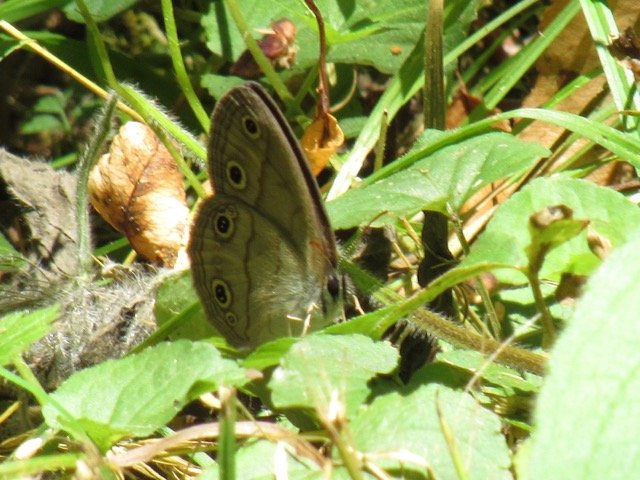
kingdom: Animalia
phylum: Arthropoda
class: Insecta
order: Lepidoptera
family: Nymphalidae
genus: Euptychia
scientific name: Euptychia cymela
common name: Little Wood Satyr
